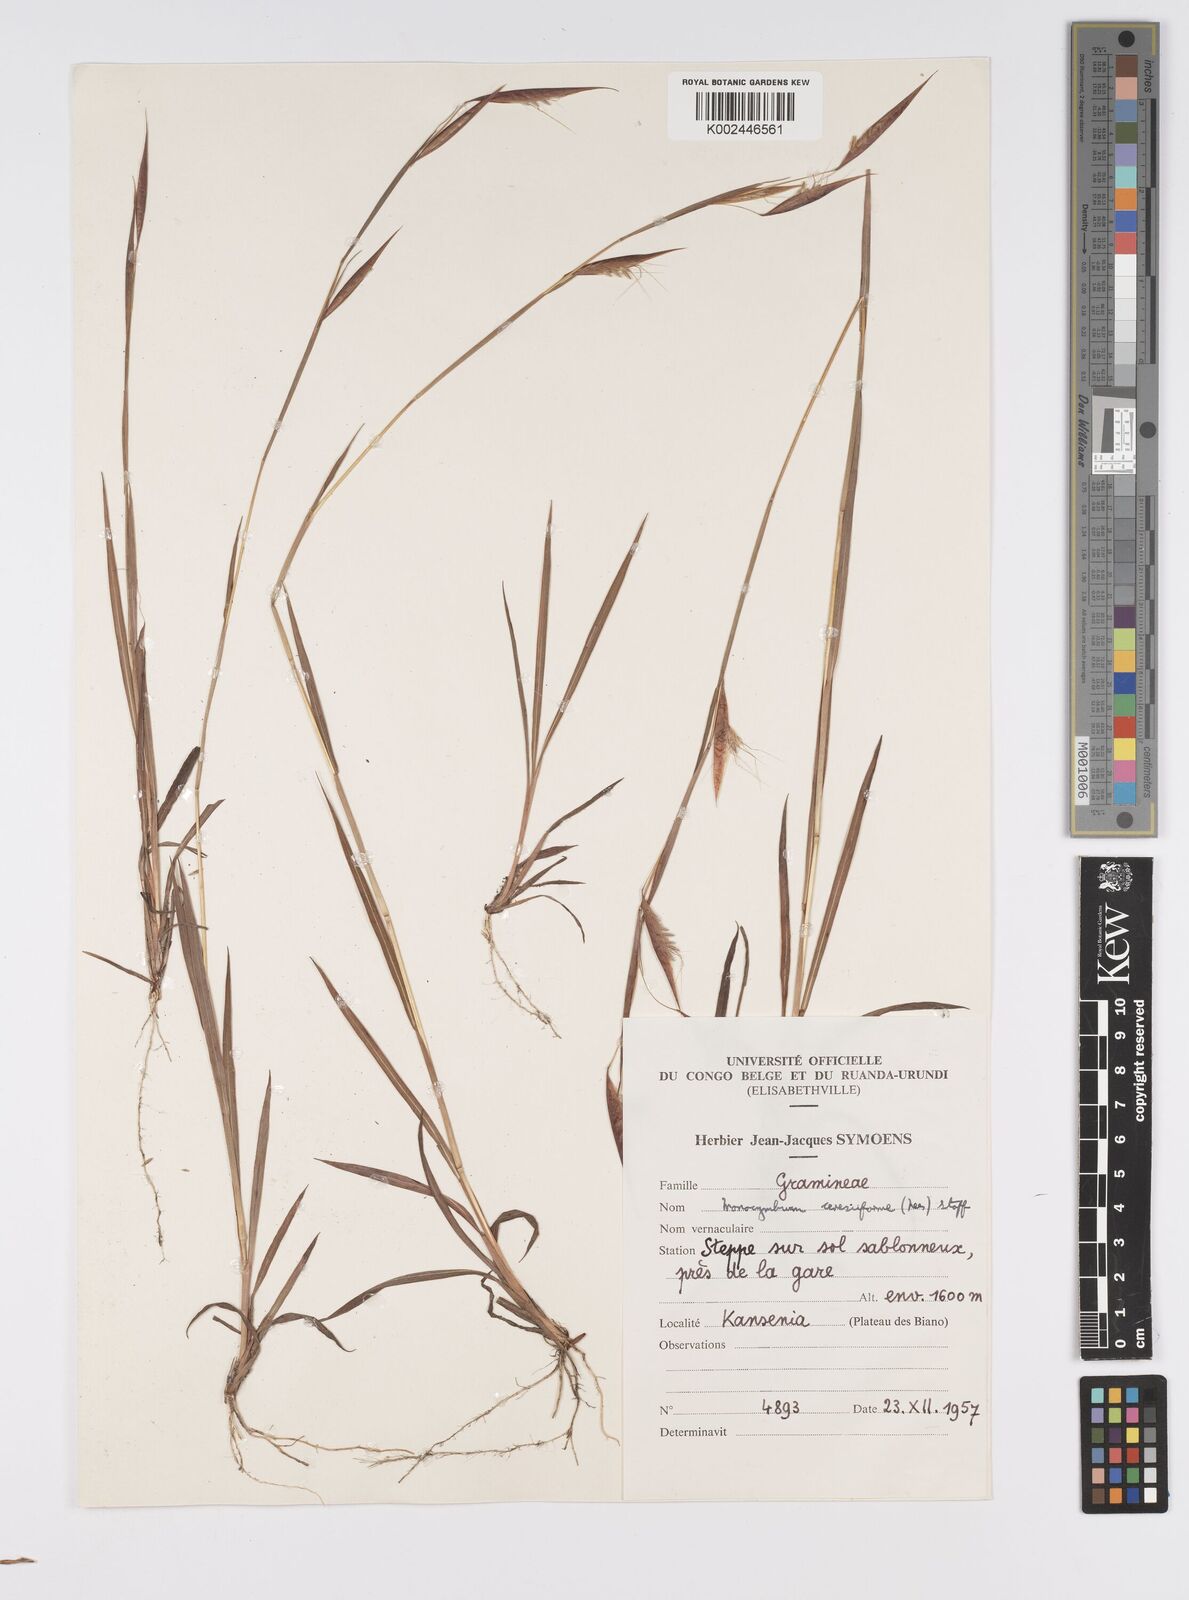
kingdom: Plantae
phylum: Tracheophyta
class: Liliopsida
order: Poales
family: Poaceae
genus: Monocymbium
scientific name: Monocymbium ceresiiforme
